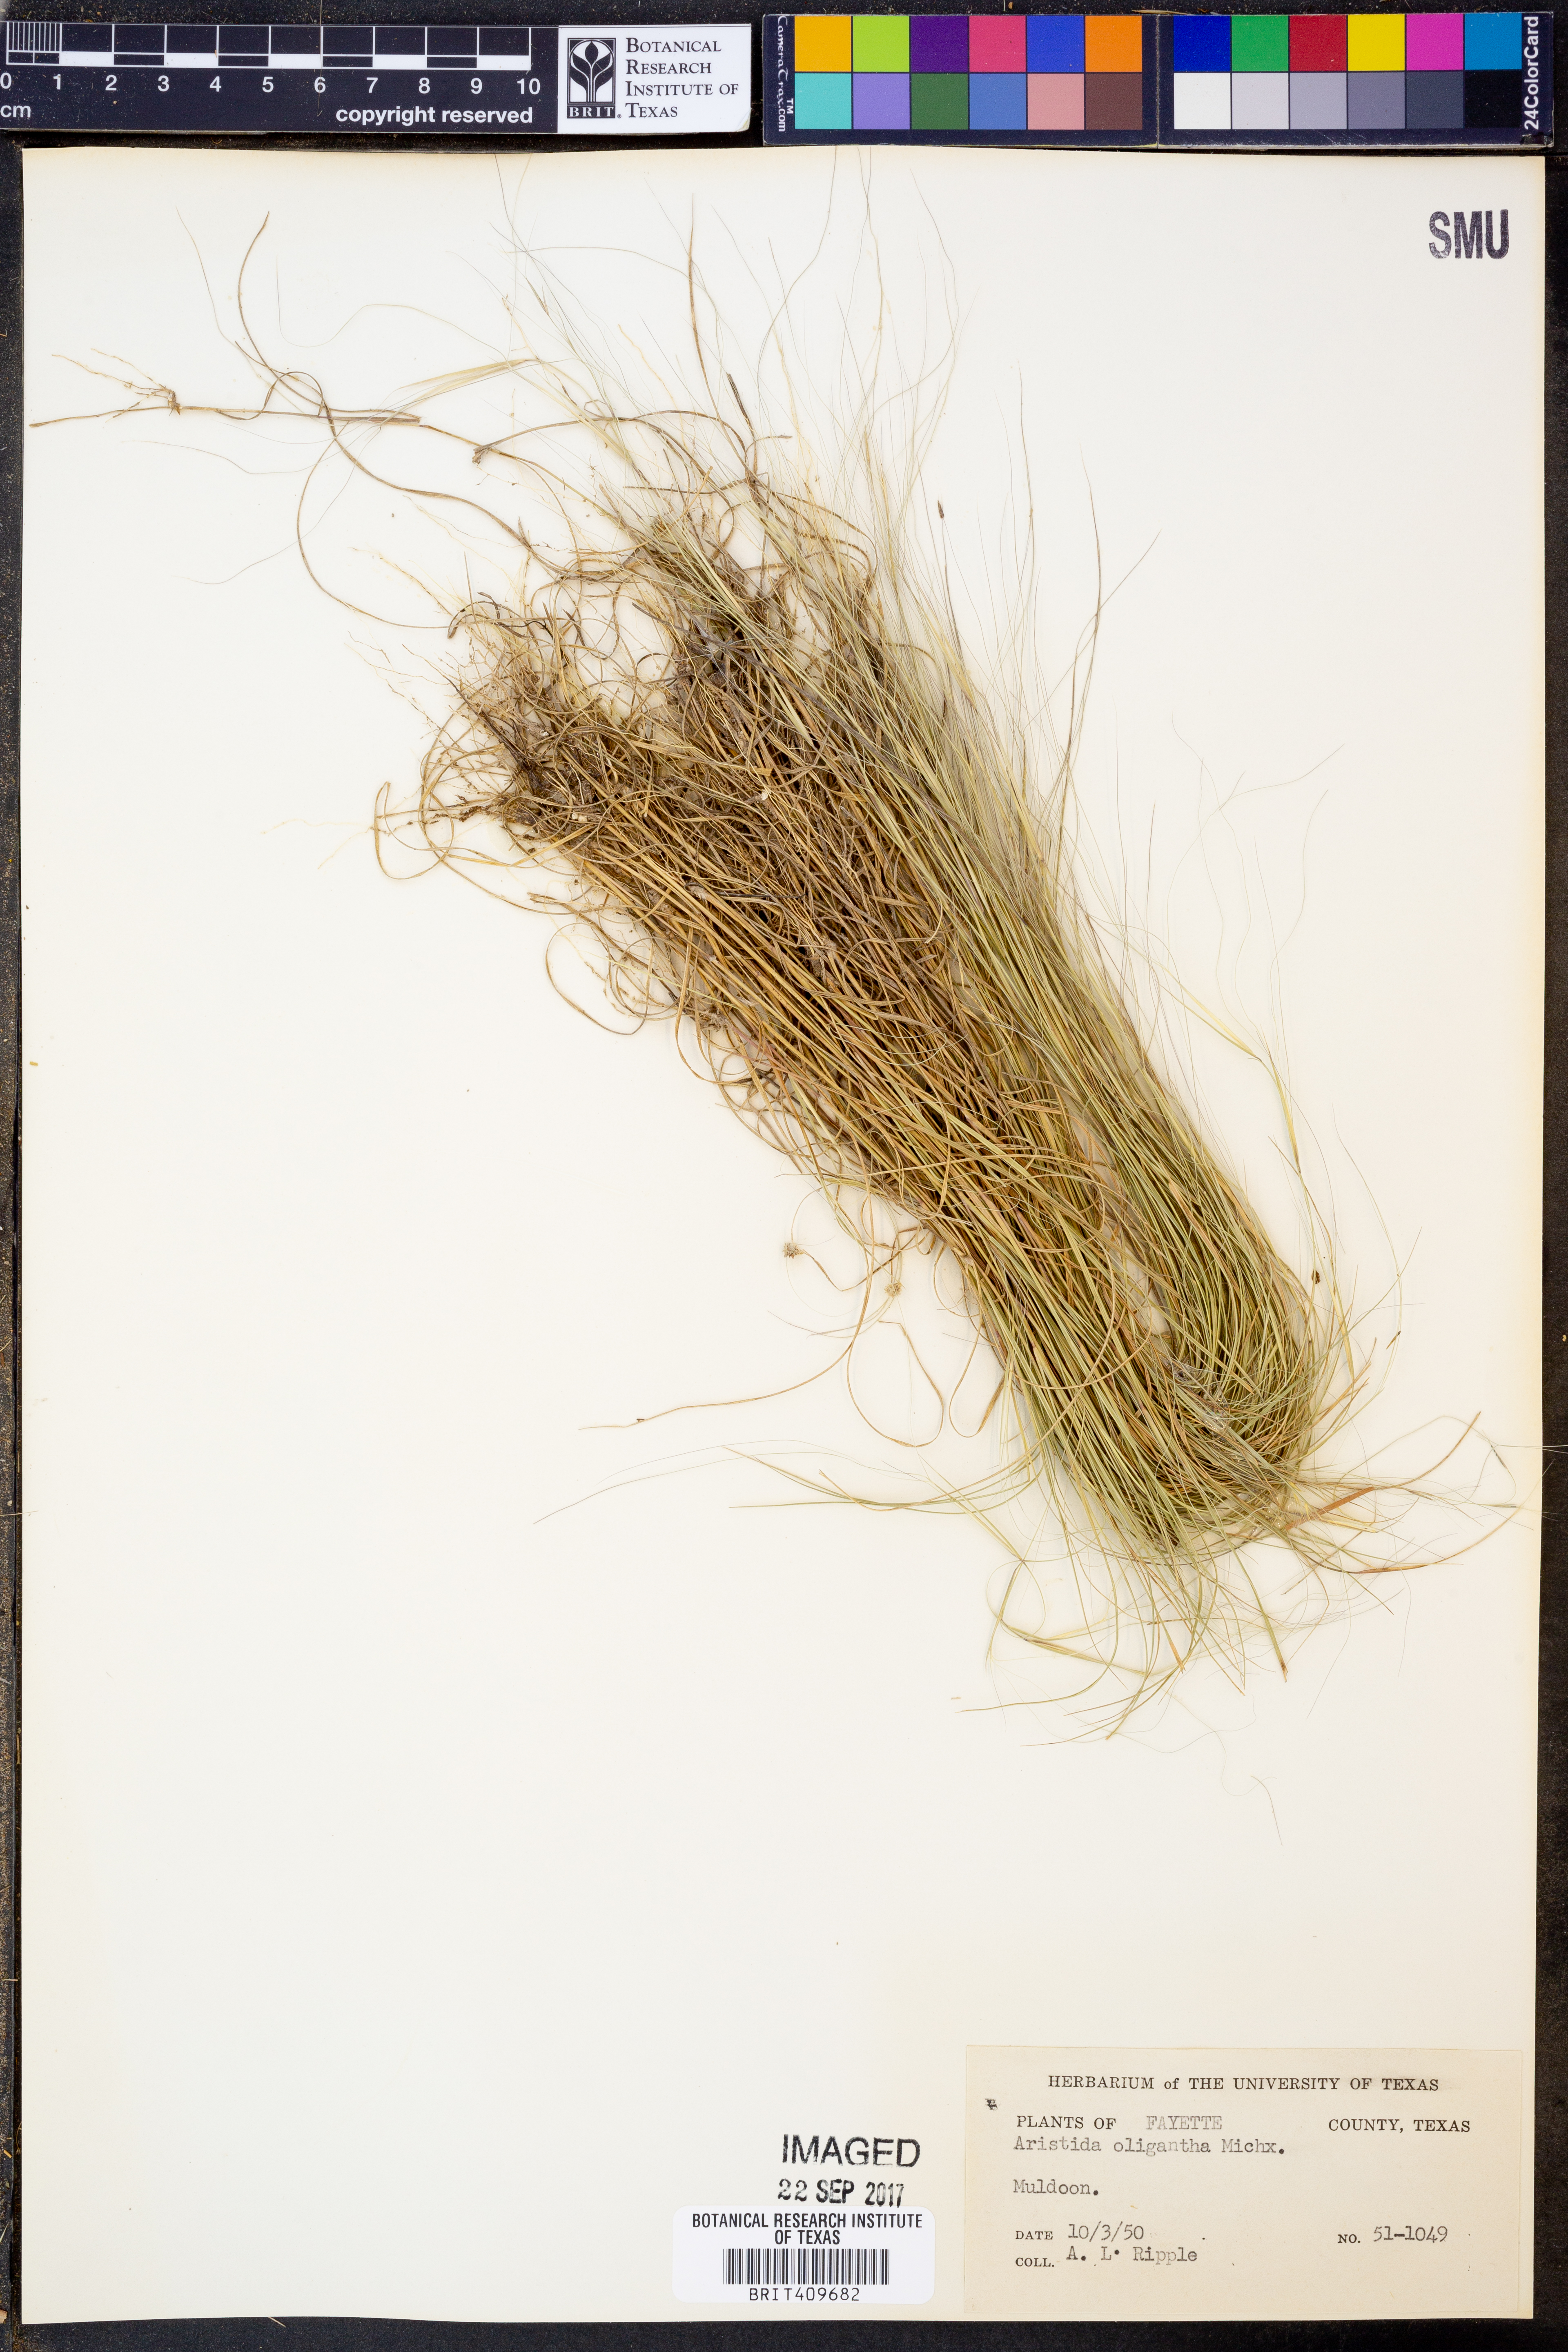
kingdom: Plantae
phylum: Tracheophyta
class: Liliopsida
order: Poales
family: Poaceae
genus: Aristida
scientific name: Aristida oligantha
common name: Few-flowered aristida
